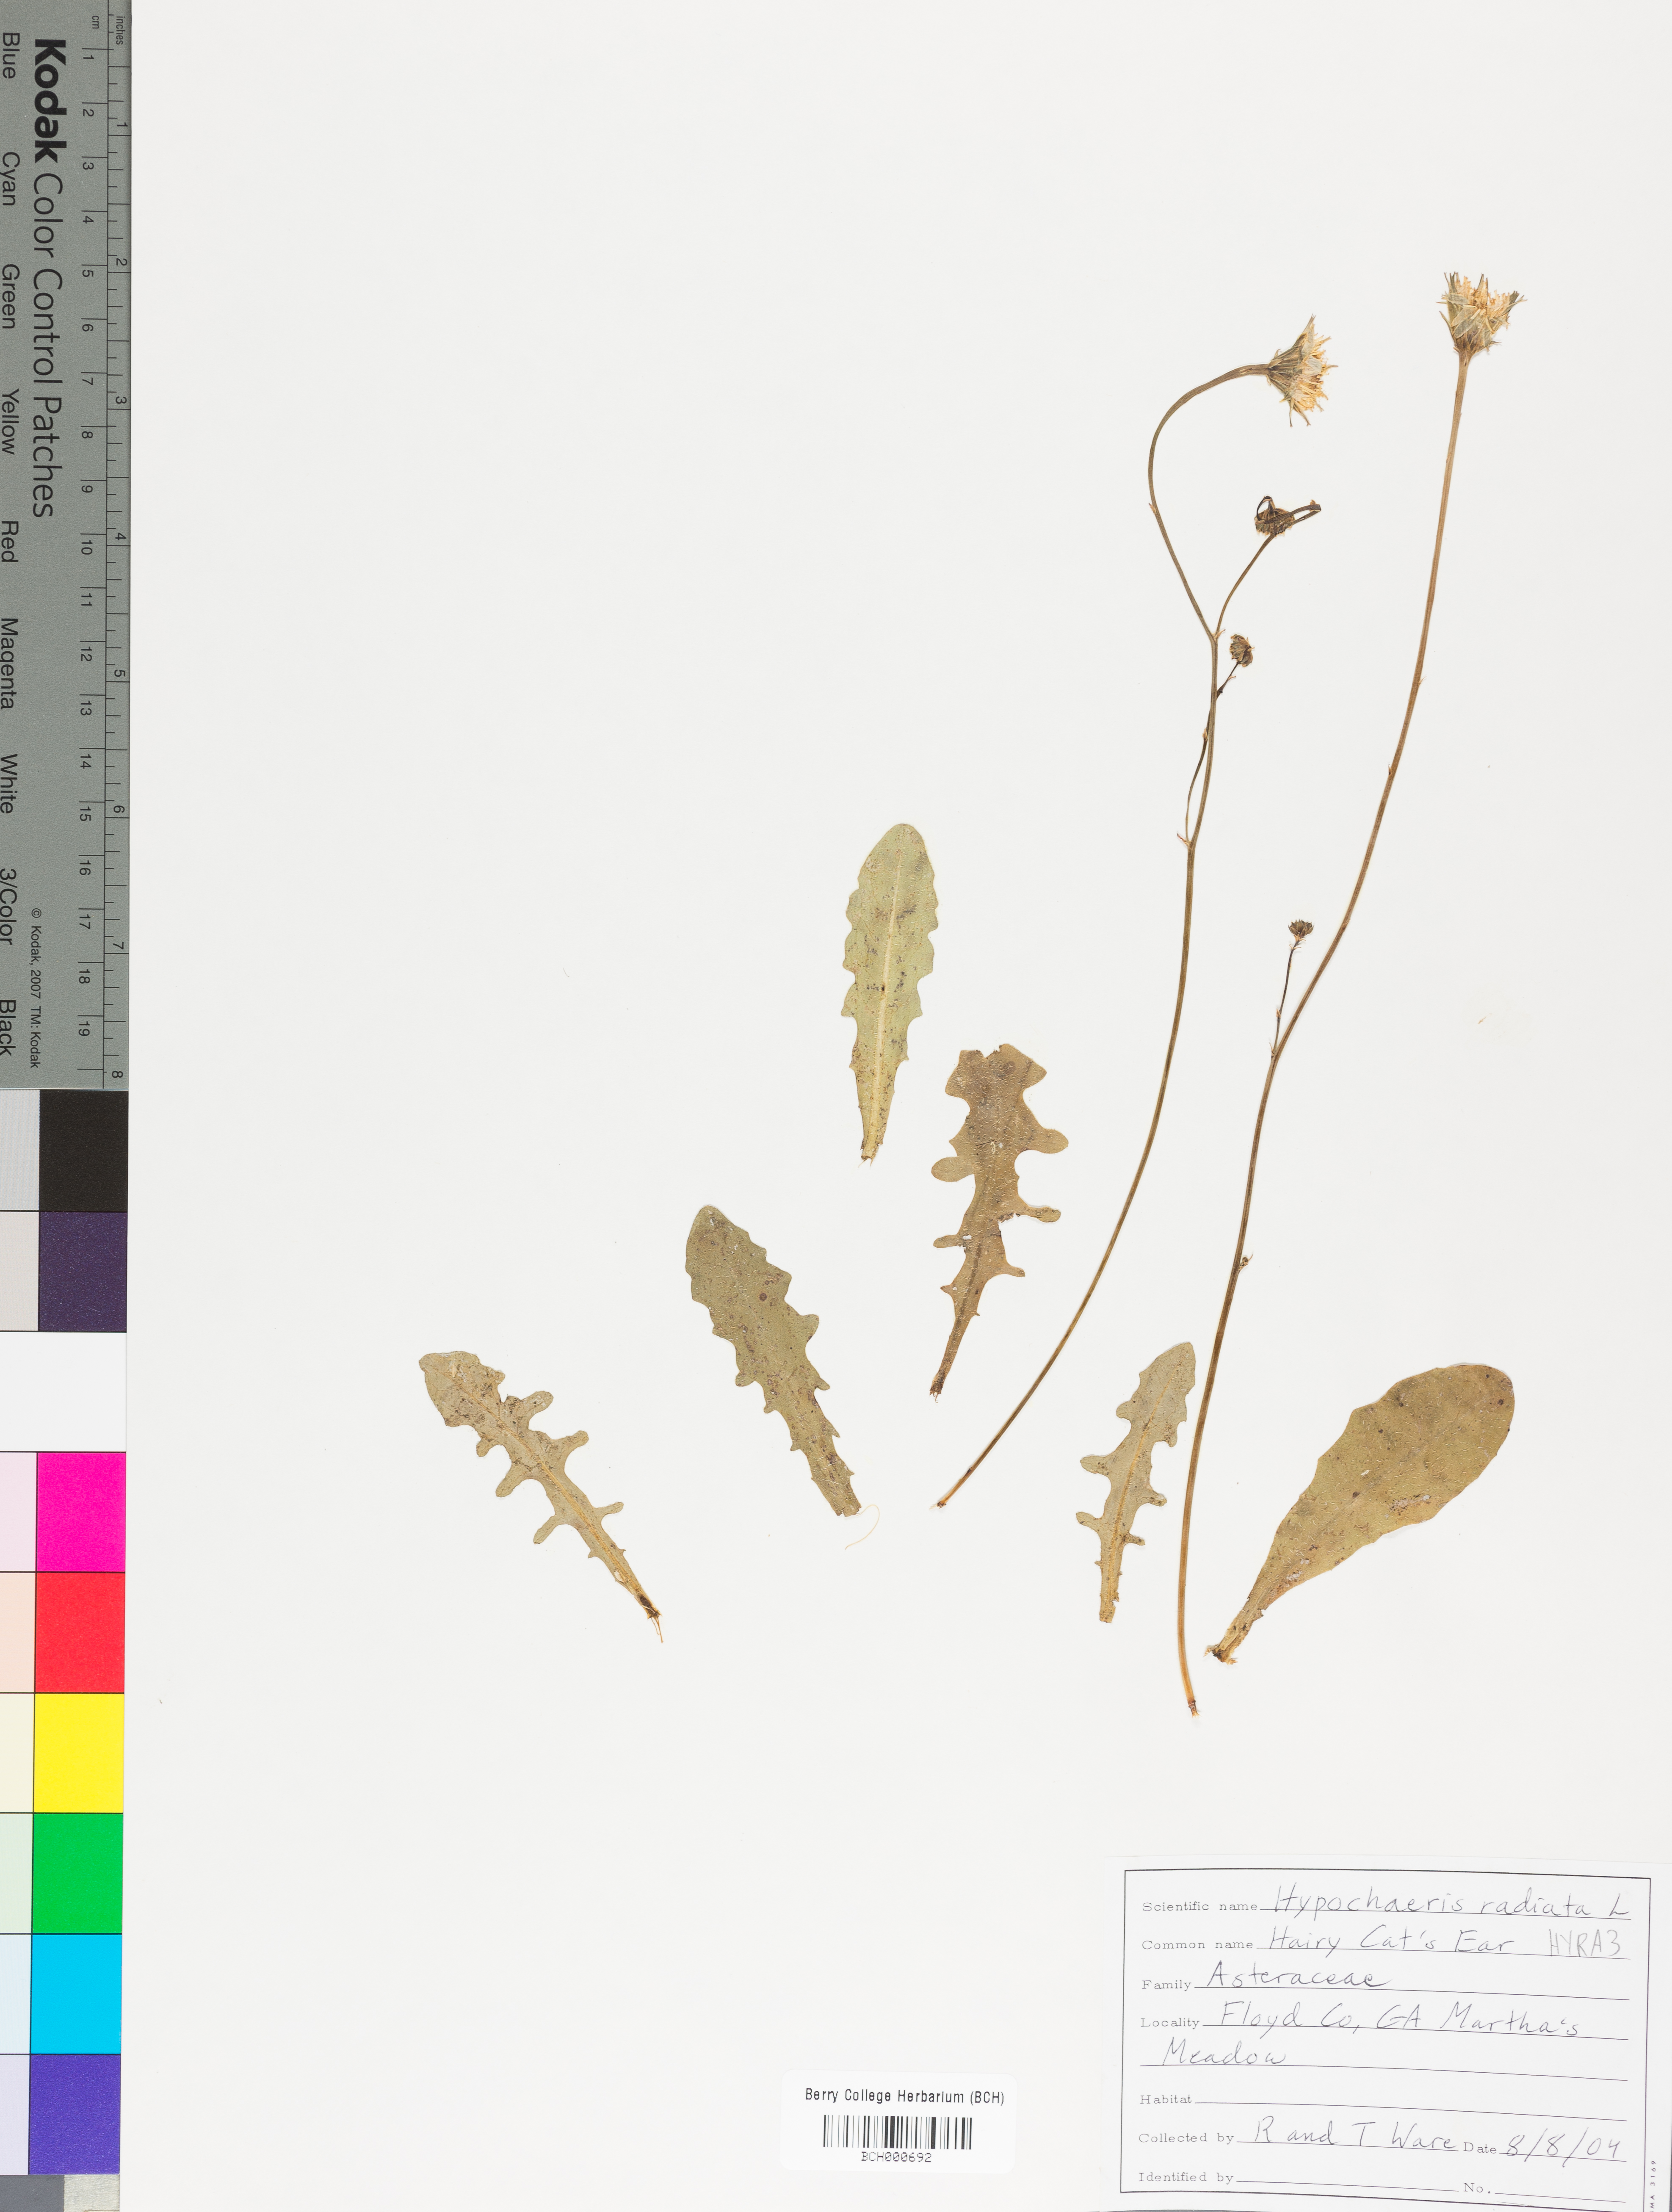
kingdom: Plantae
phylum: Tracheophyta
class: Magnoliopsida
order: Asterales
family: Asteraceae
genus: Hypochaeris
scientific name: Hypochaeris radicata
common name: Flatweed
